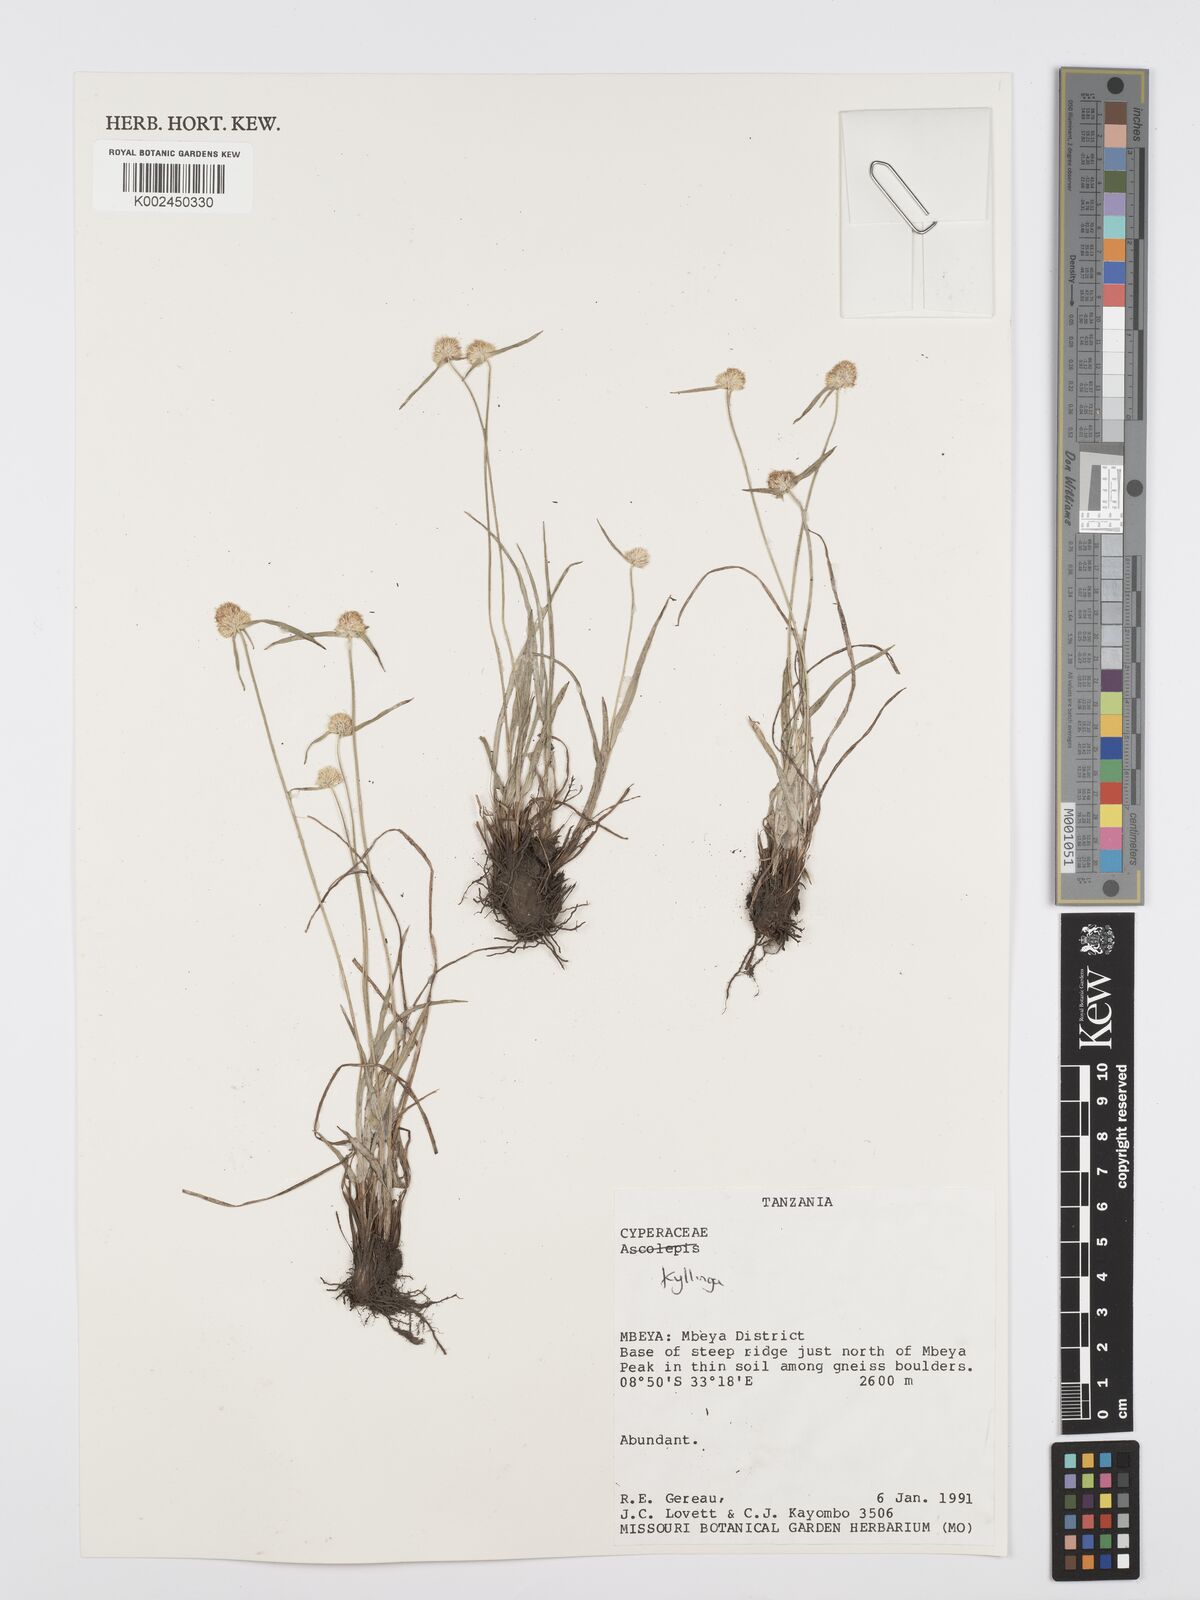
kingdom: Plantae
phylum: Tracheophyta
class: Liliopsida
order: Poales
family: Cyperaceae
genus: Cyperus
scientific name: Cyperus
